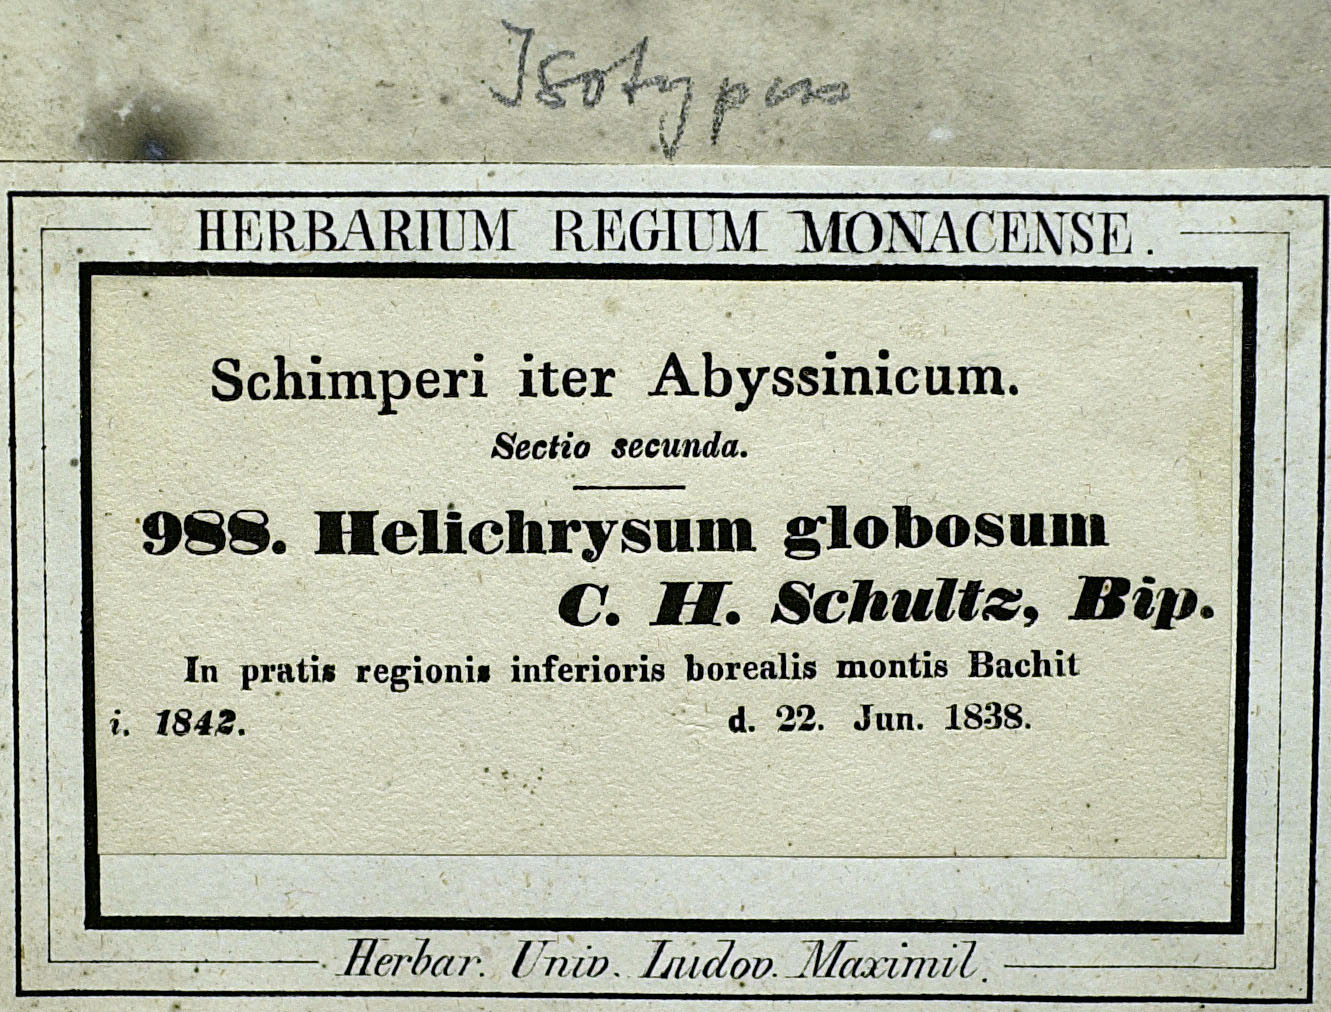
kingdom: Plantae
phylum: Tracheophyta
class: Magnoliopsida
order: Asterales
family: Asteraceae
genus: Helichrysum
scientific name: Helichrysum globosum
